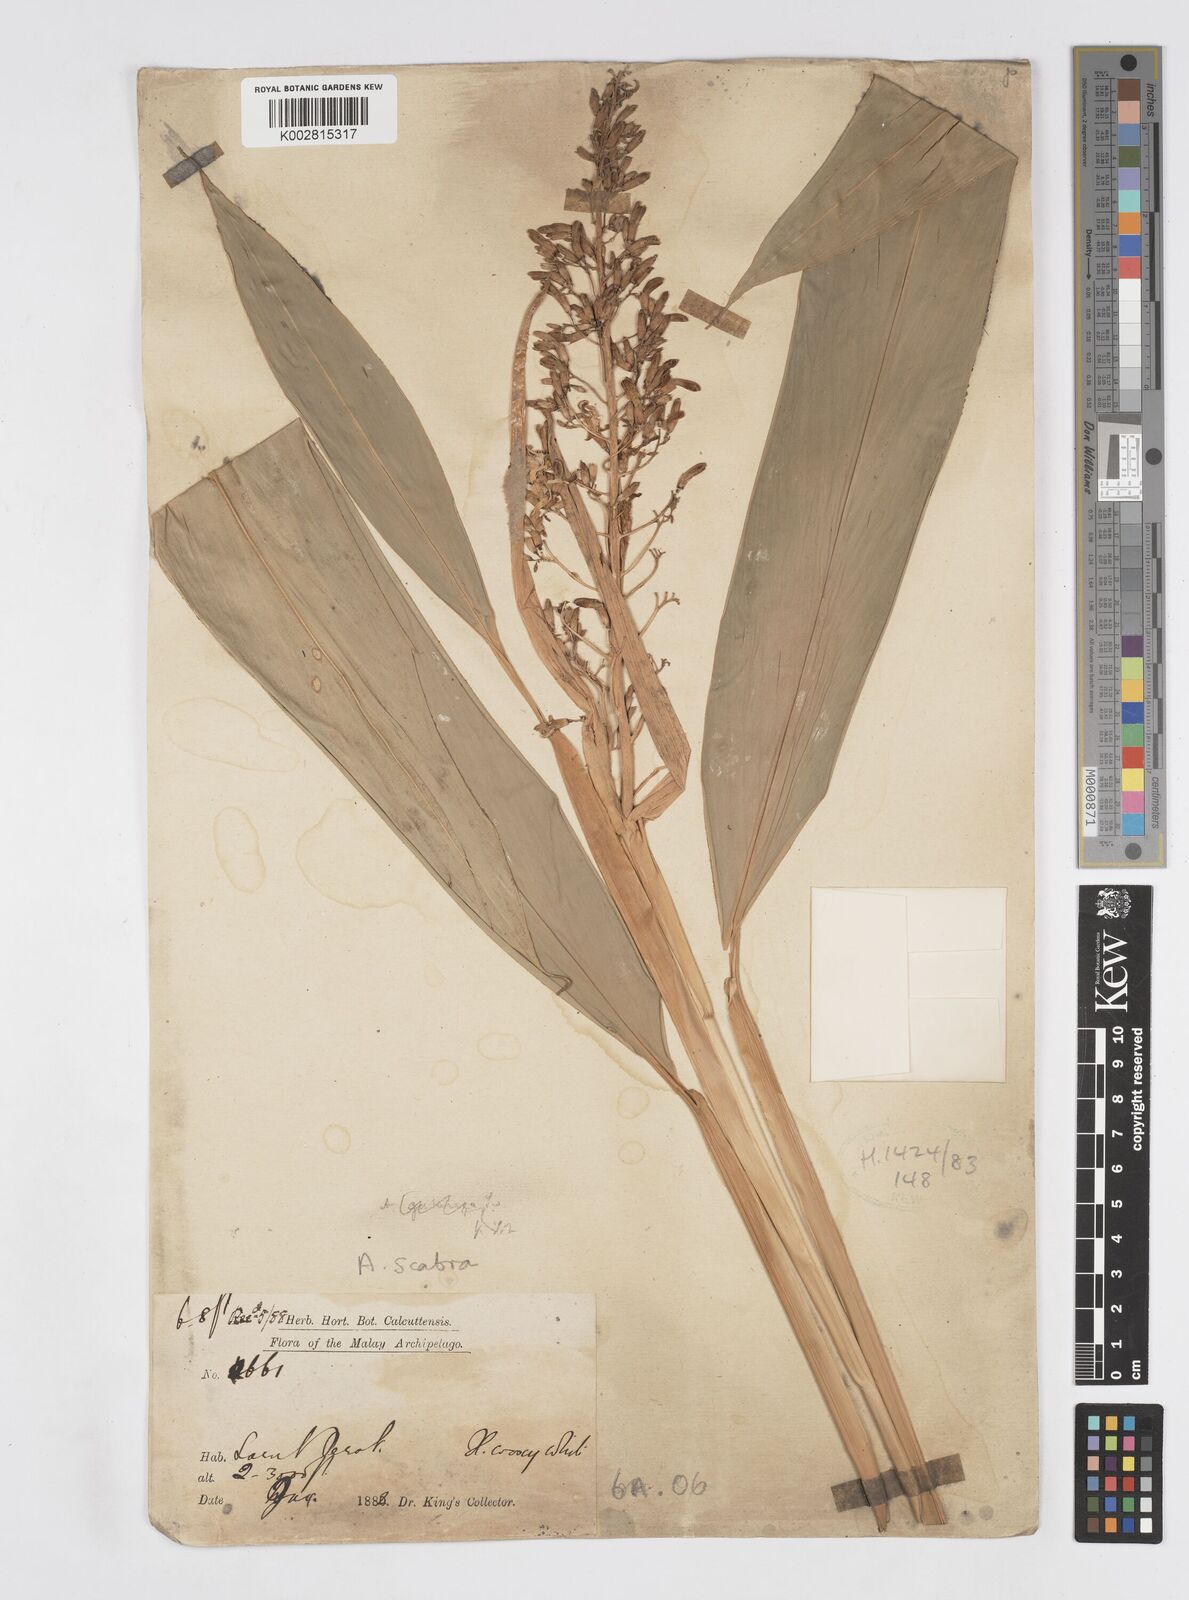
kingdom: Plantae
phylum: Tracheophyta
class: Liliopsida
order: Zingiberales
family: Zingiberaceae
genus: Alpinia
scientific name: Alpinia scabra
